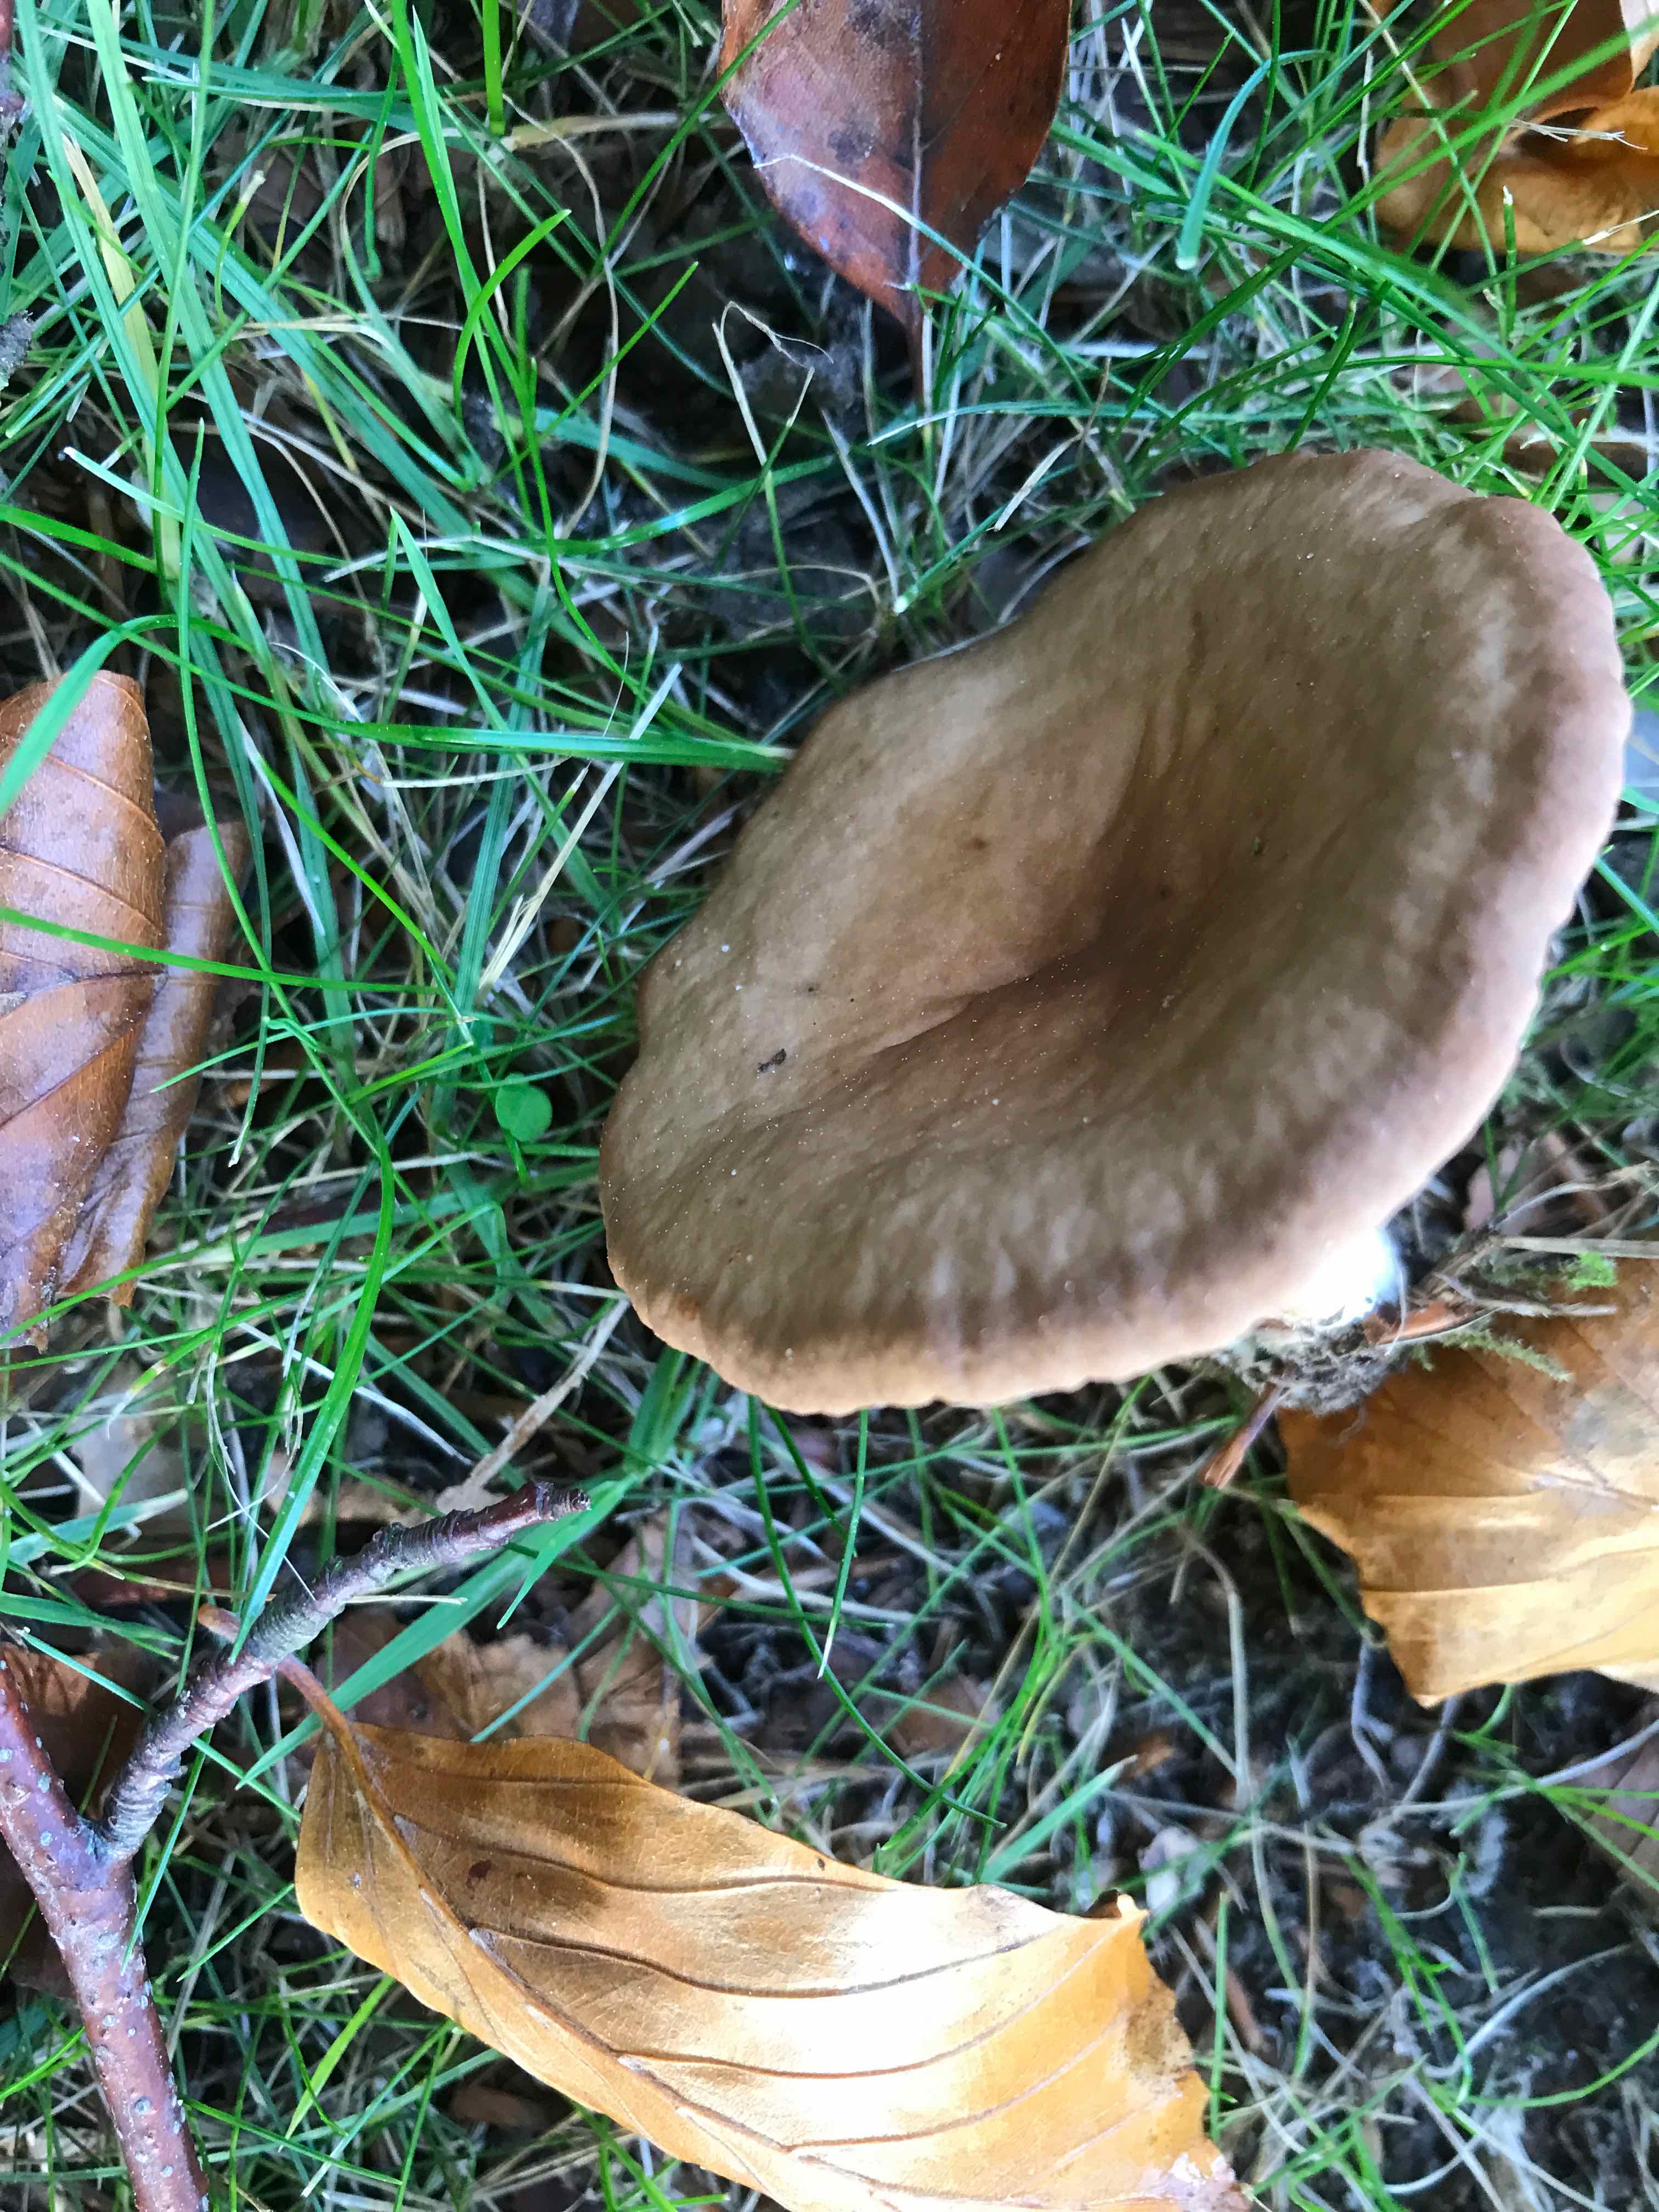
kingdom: Fungi
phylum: Basidiomycota
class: Agaricomycetes
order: Russulales
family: Russulaceae
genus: Lactarius
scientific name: Lactarius quietus
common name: ege-mælkehat
